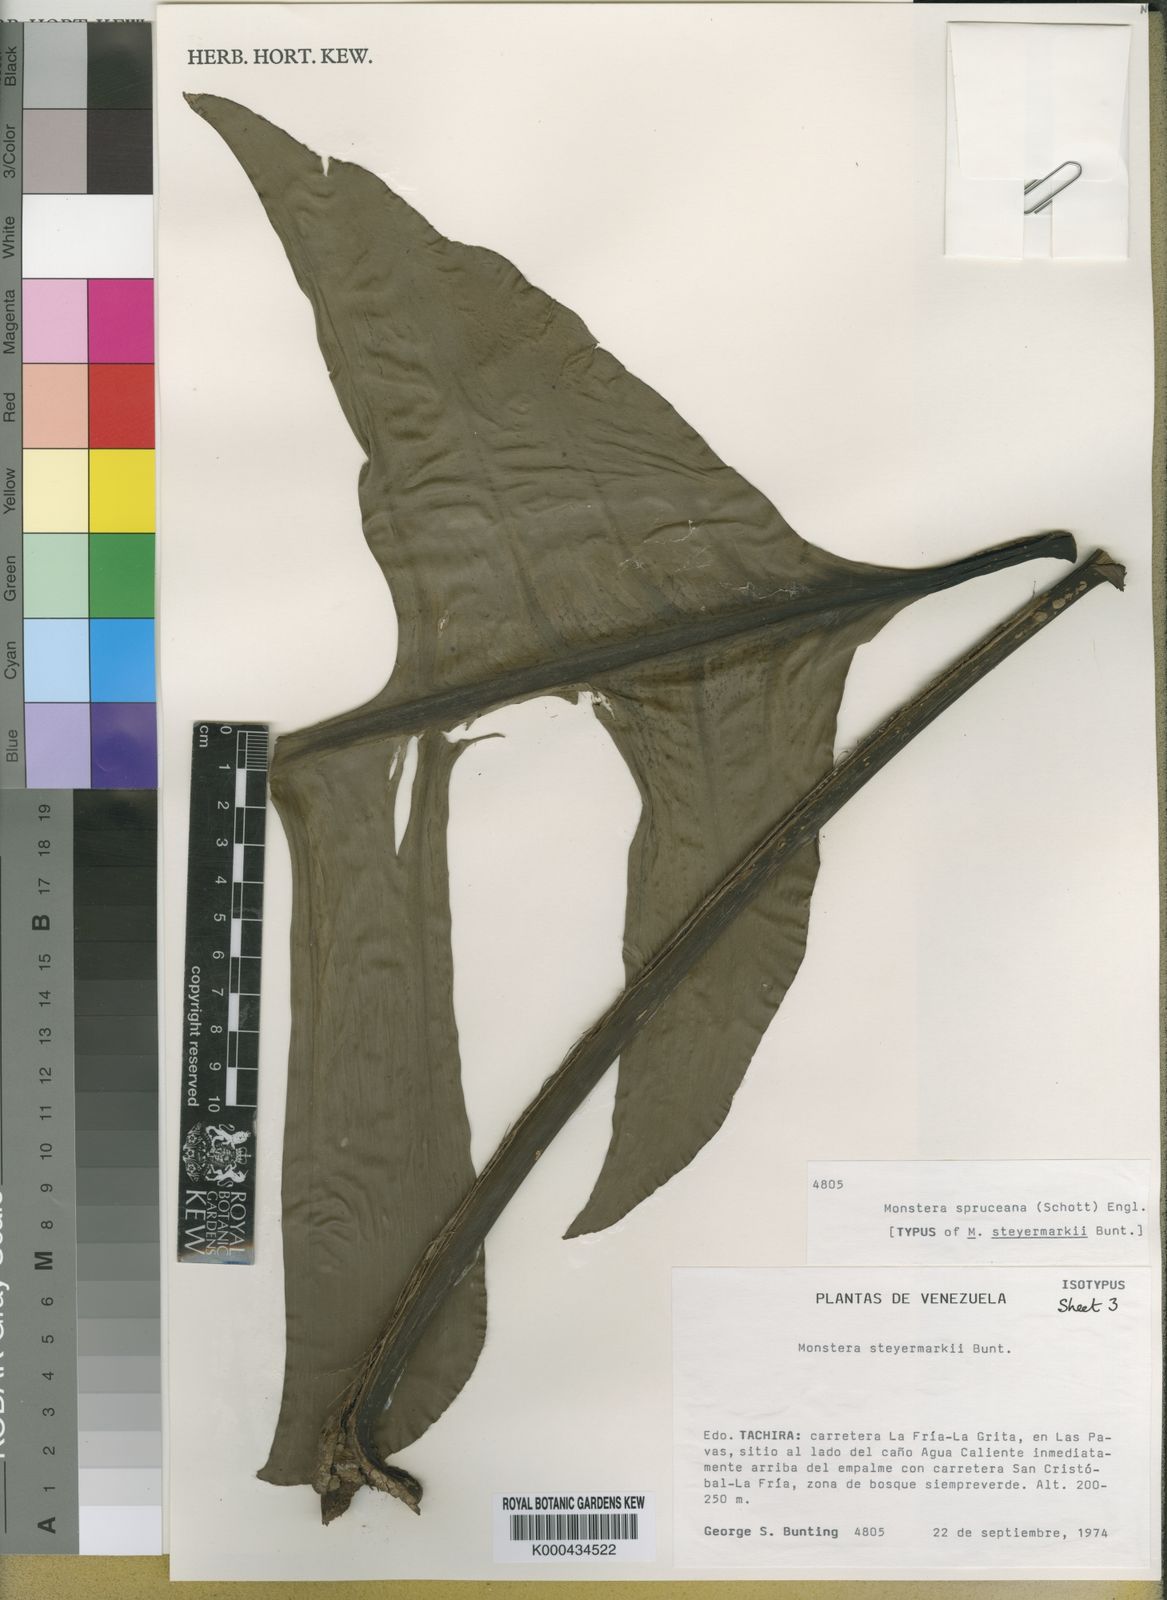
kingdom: Plantae
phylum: Tracheophyta
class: Liliopsida
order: Alismatales
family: Araceae
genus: Monstera
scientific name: Monstera spruceana
